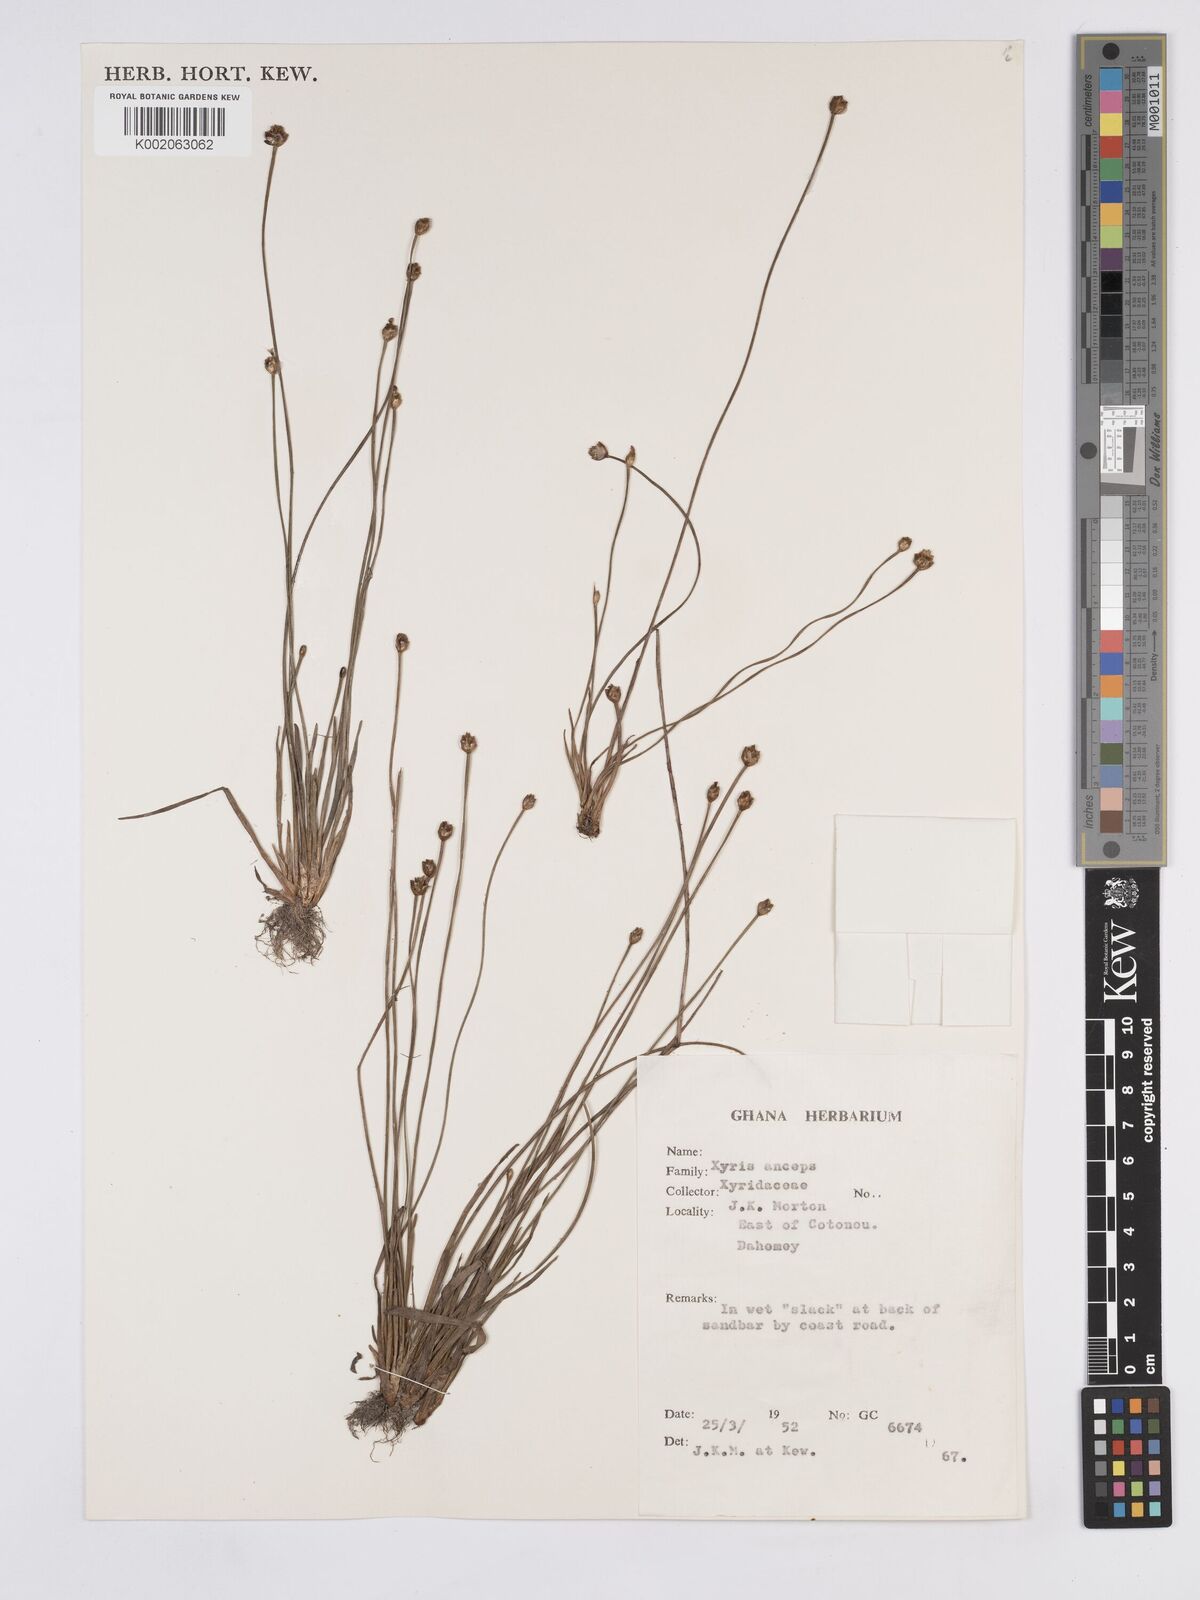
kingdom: Plantae
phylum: Tracheophyta
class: Liliopsida
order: Poales
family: Xyridaceae
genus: Xyris
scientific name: Xyris anceps
